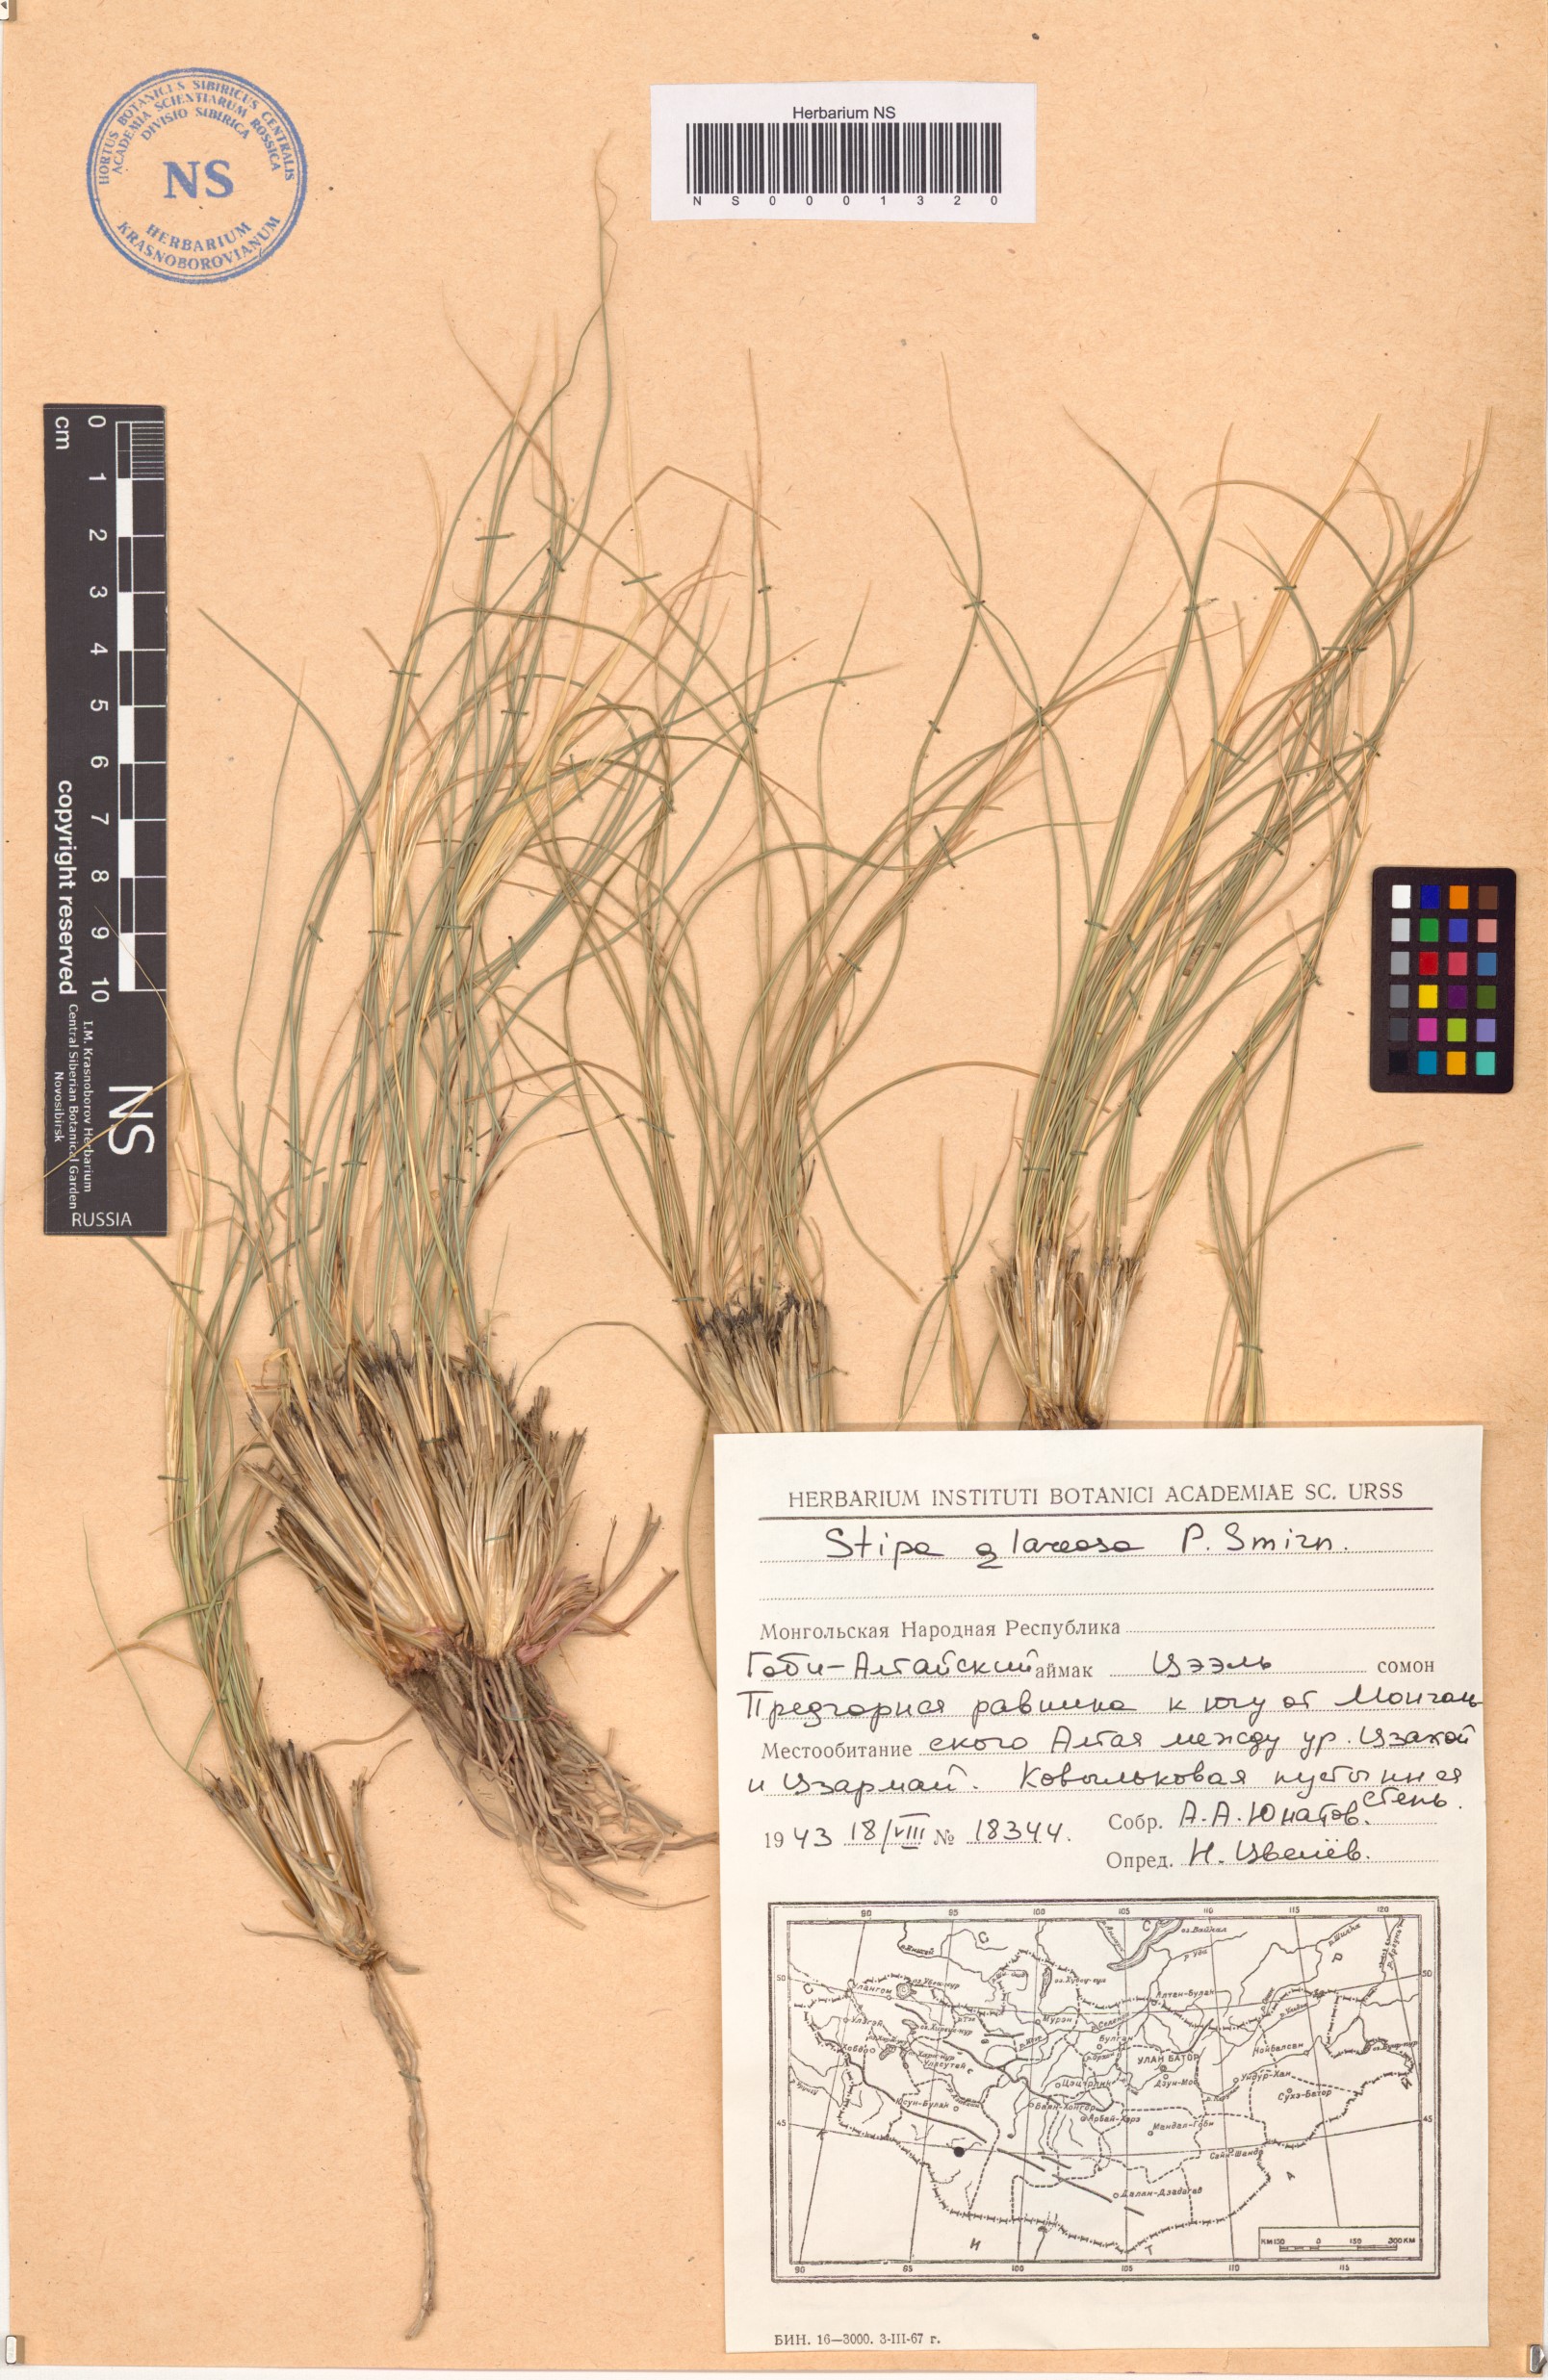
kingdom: Plantae
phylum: Tracheophyta
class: Liliopsida
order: Poales
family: Poaceae
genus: Stipa
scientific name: Stipa glareosa
